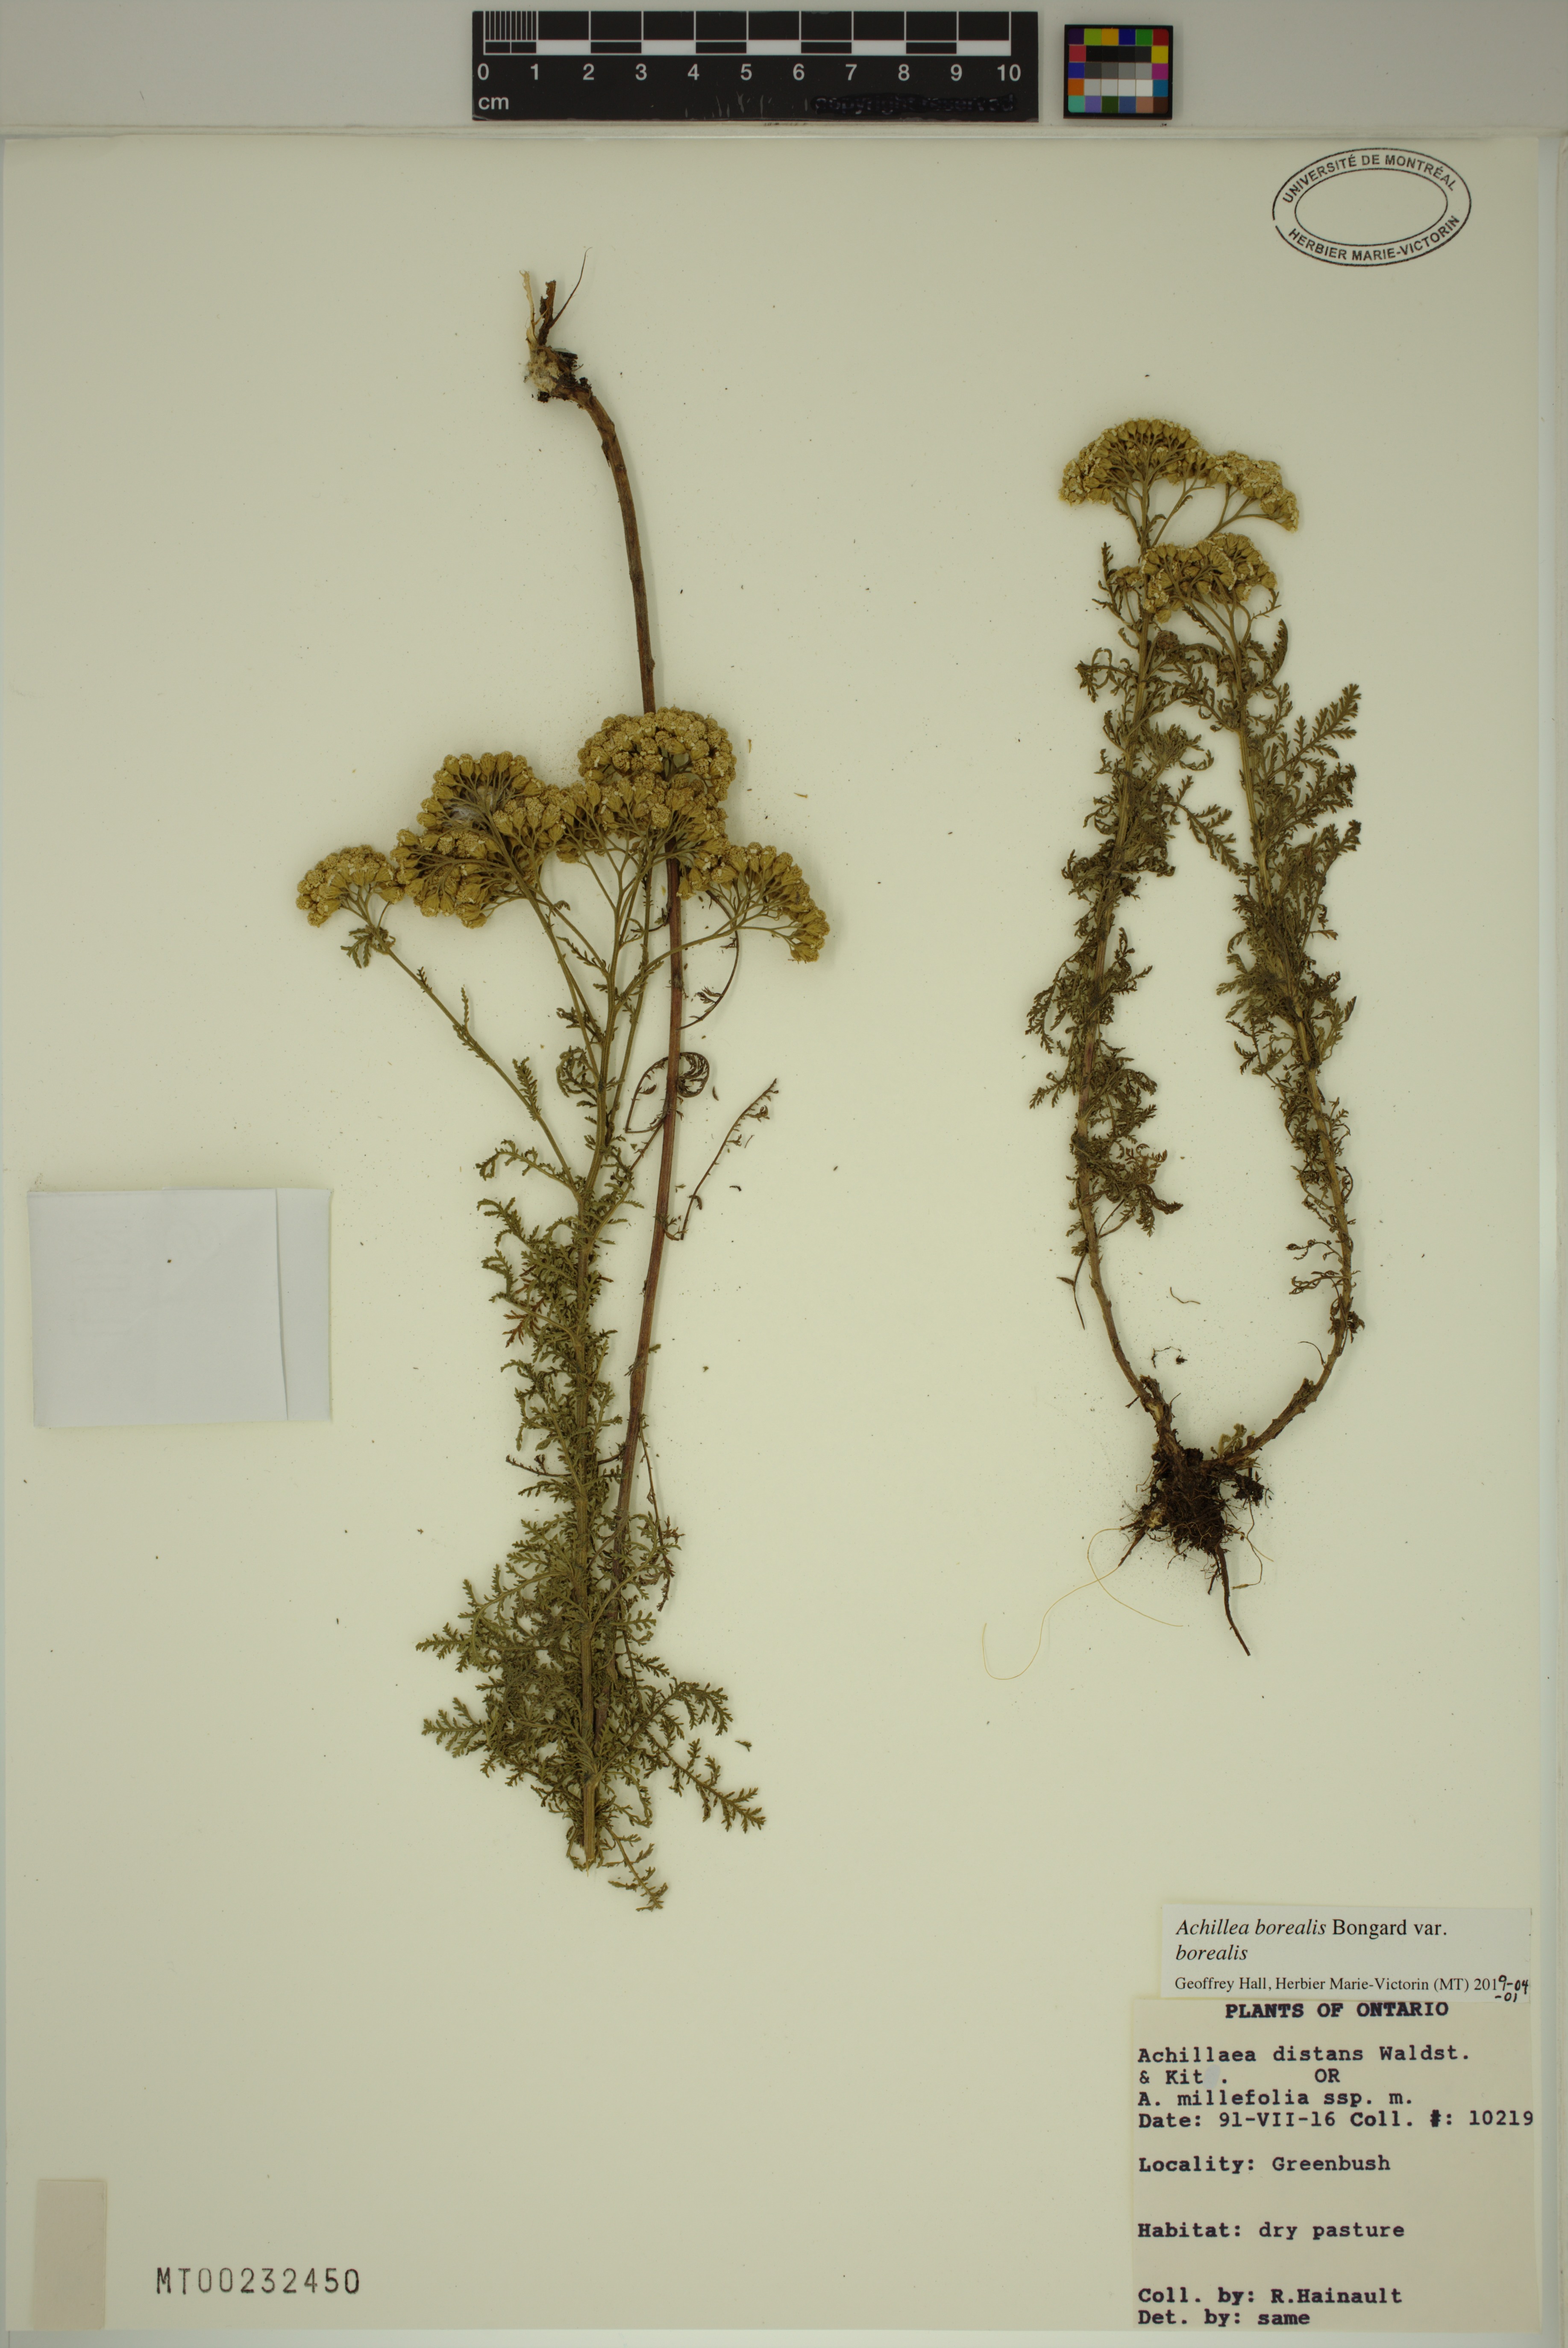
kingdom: Plantae
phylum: Tracheophyta
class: Magnoliopsida
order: Asterales
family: Asteraceae
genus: Achillea
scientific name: Achillea millefolium
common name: Yarrow
